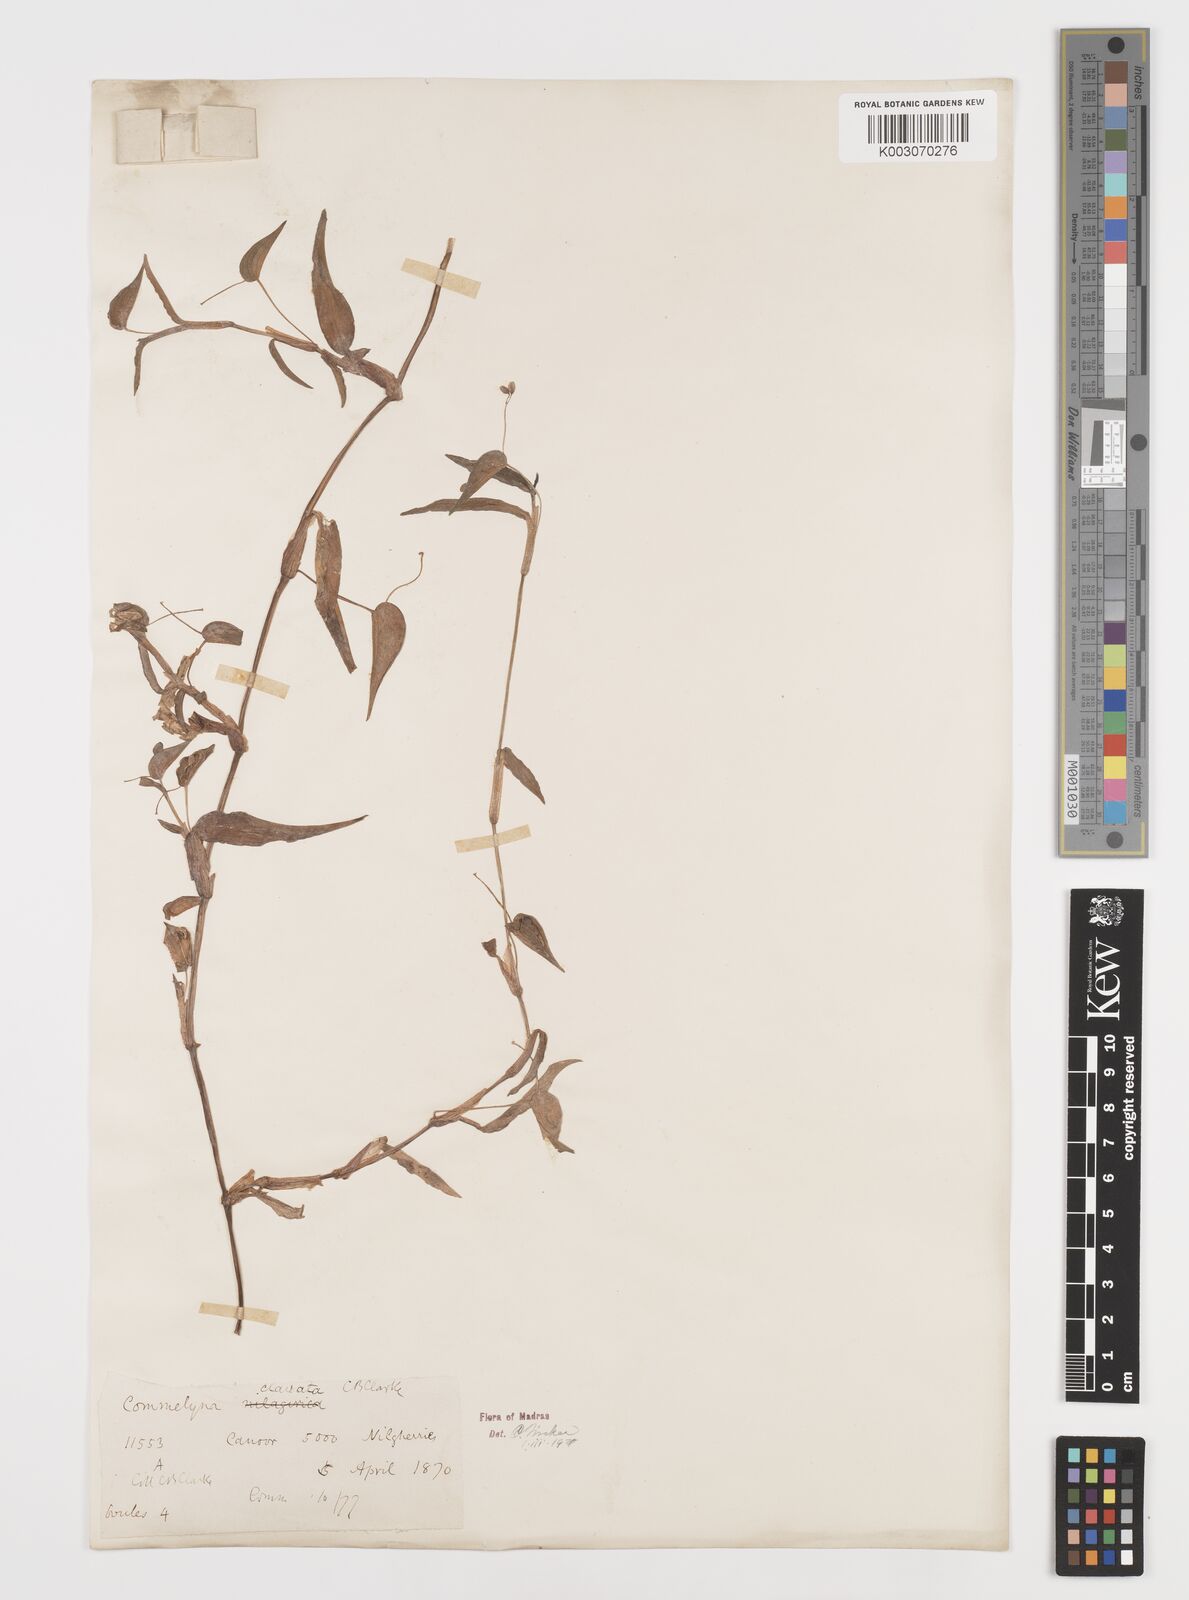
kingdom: Plantae
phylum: Tracheophyta
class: Liliopsida
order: Commelinales
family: Commelinaceae
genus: Commelina
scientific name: Commelina clavata
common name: Willow leaved dayflower
